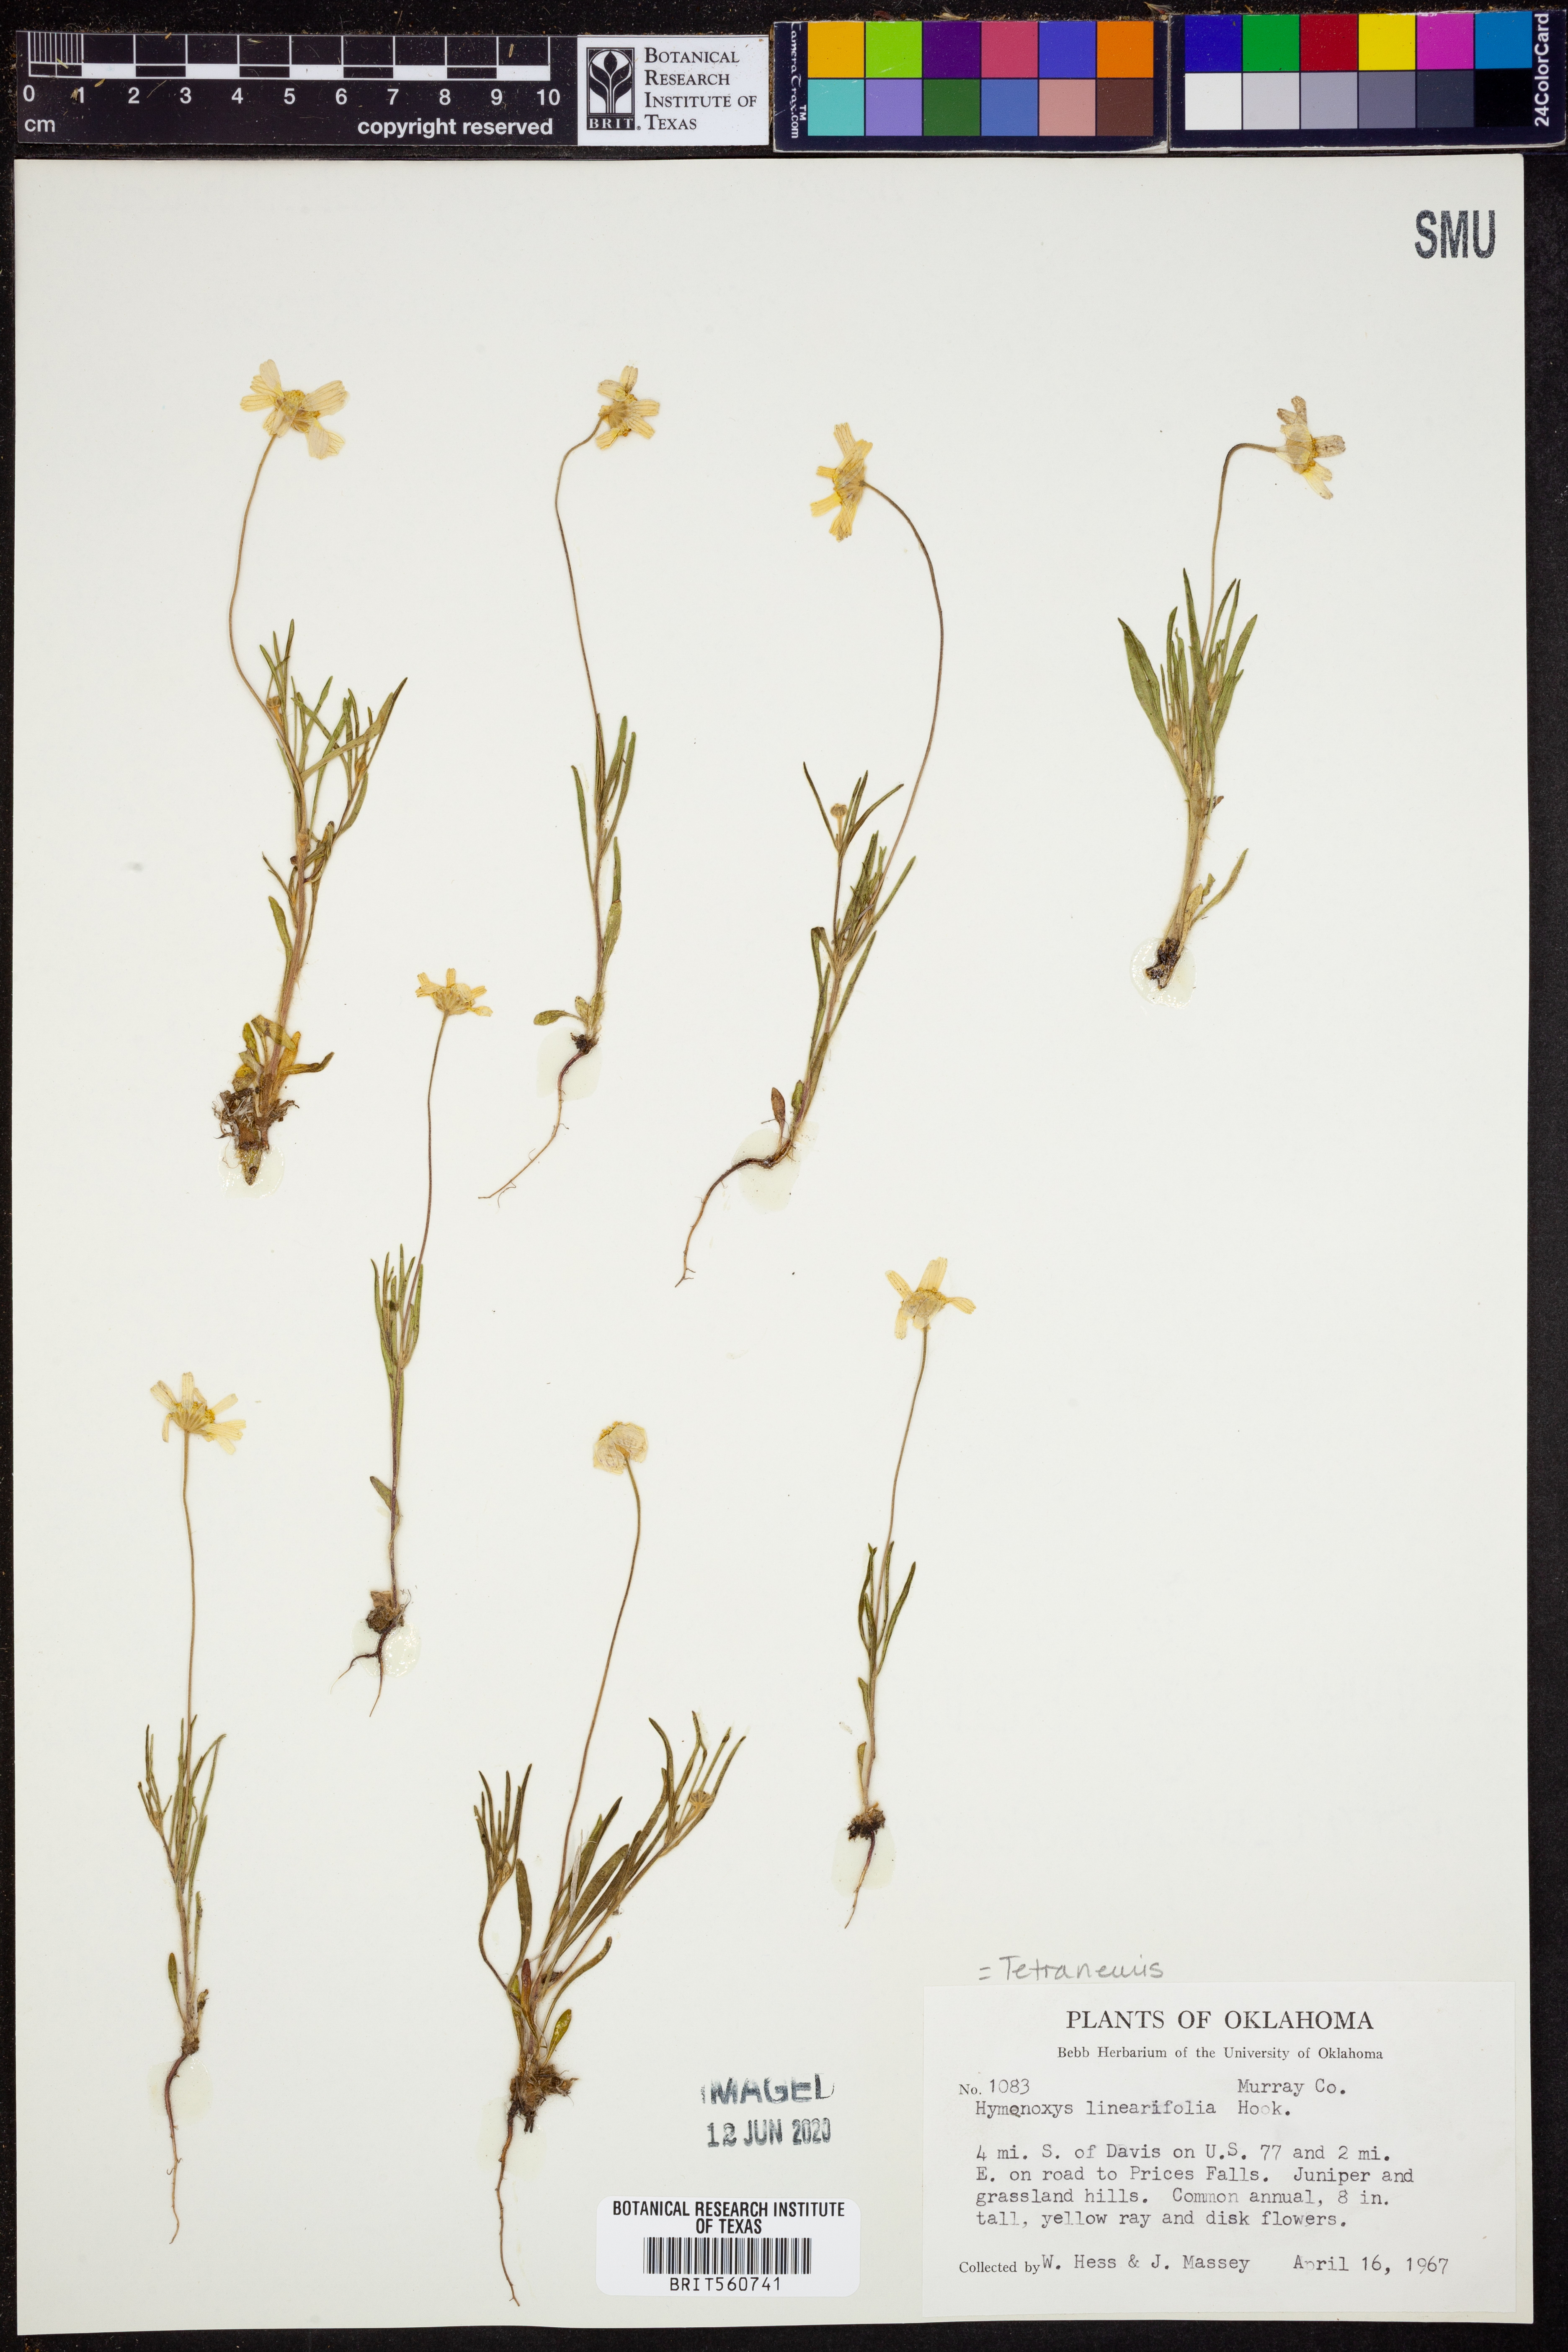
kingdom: Plantae
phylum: Tracheophyta
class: Magnoliopsida
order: Asterales
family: Asteraceae
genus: Tetraneuris
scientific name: Tetraneuris linearifolia
